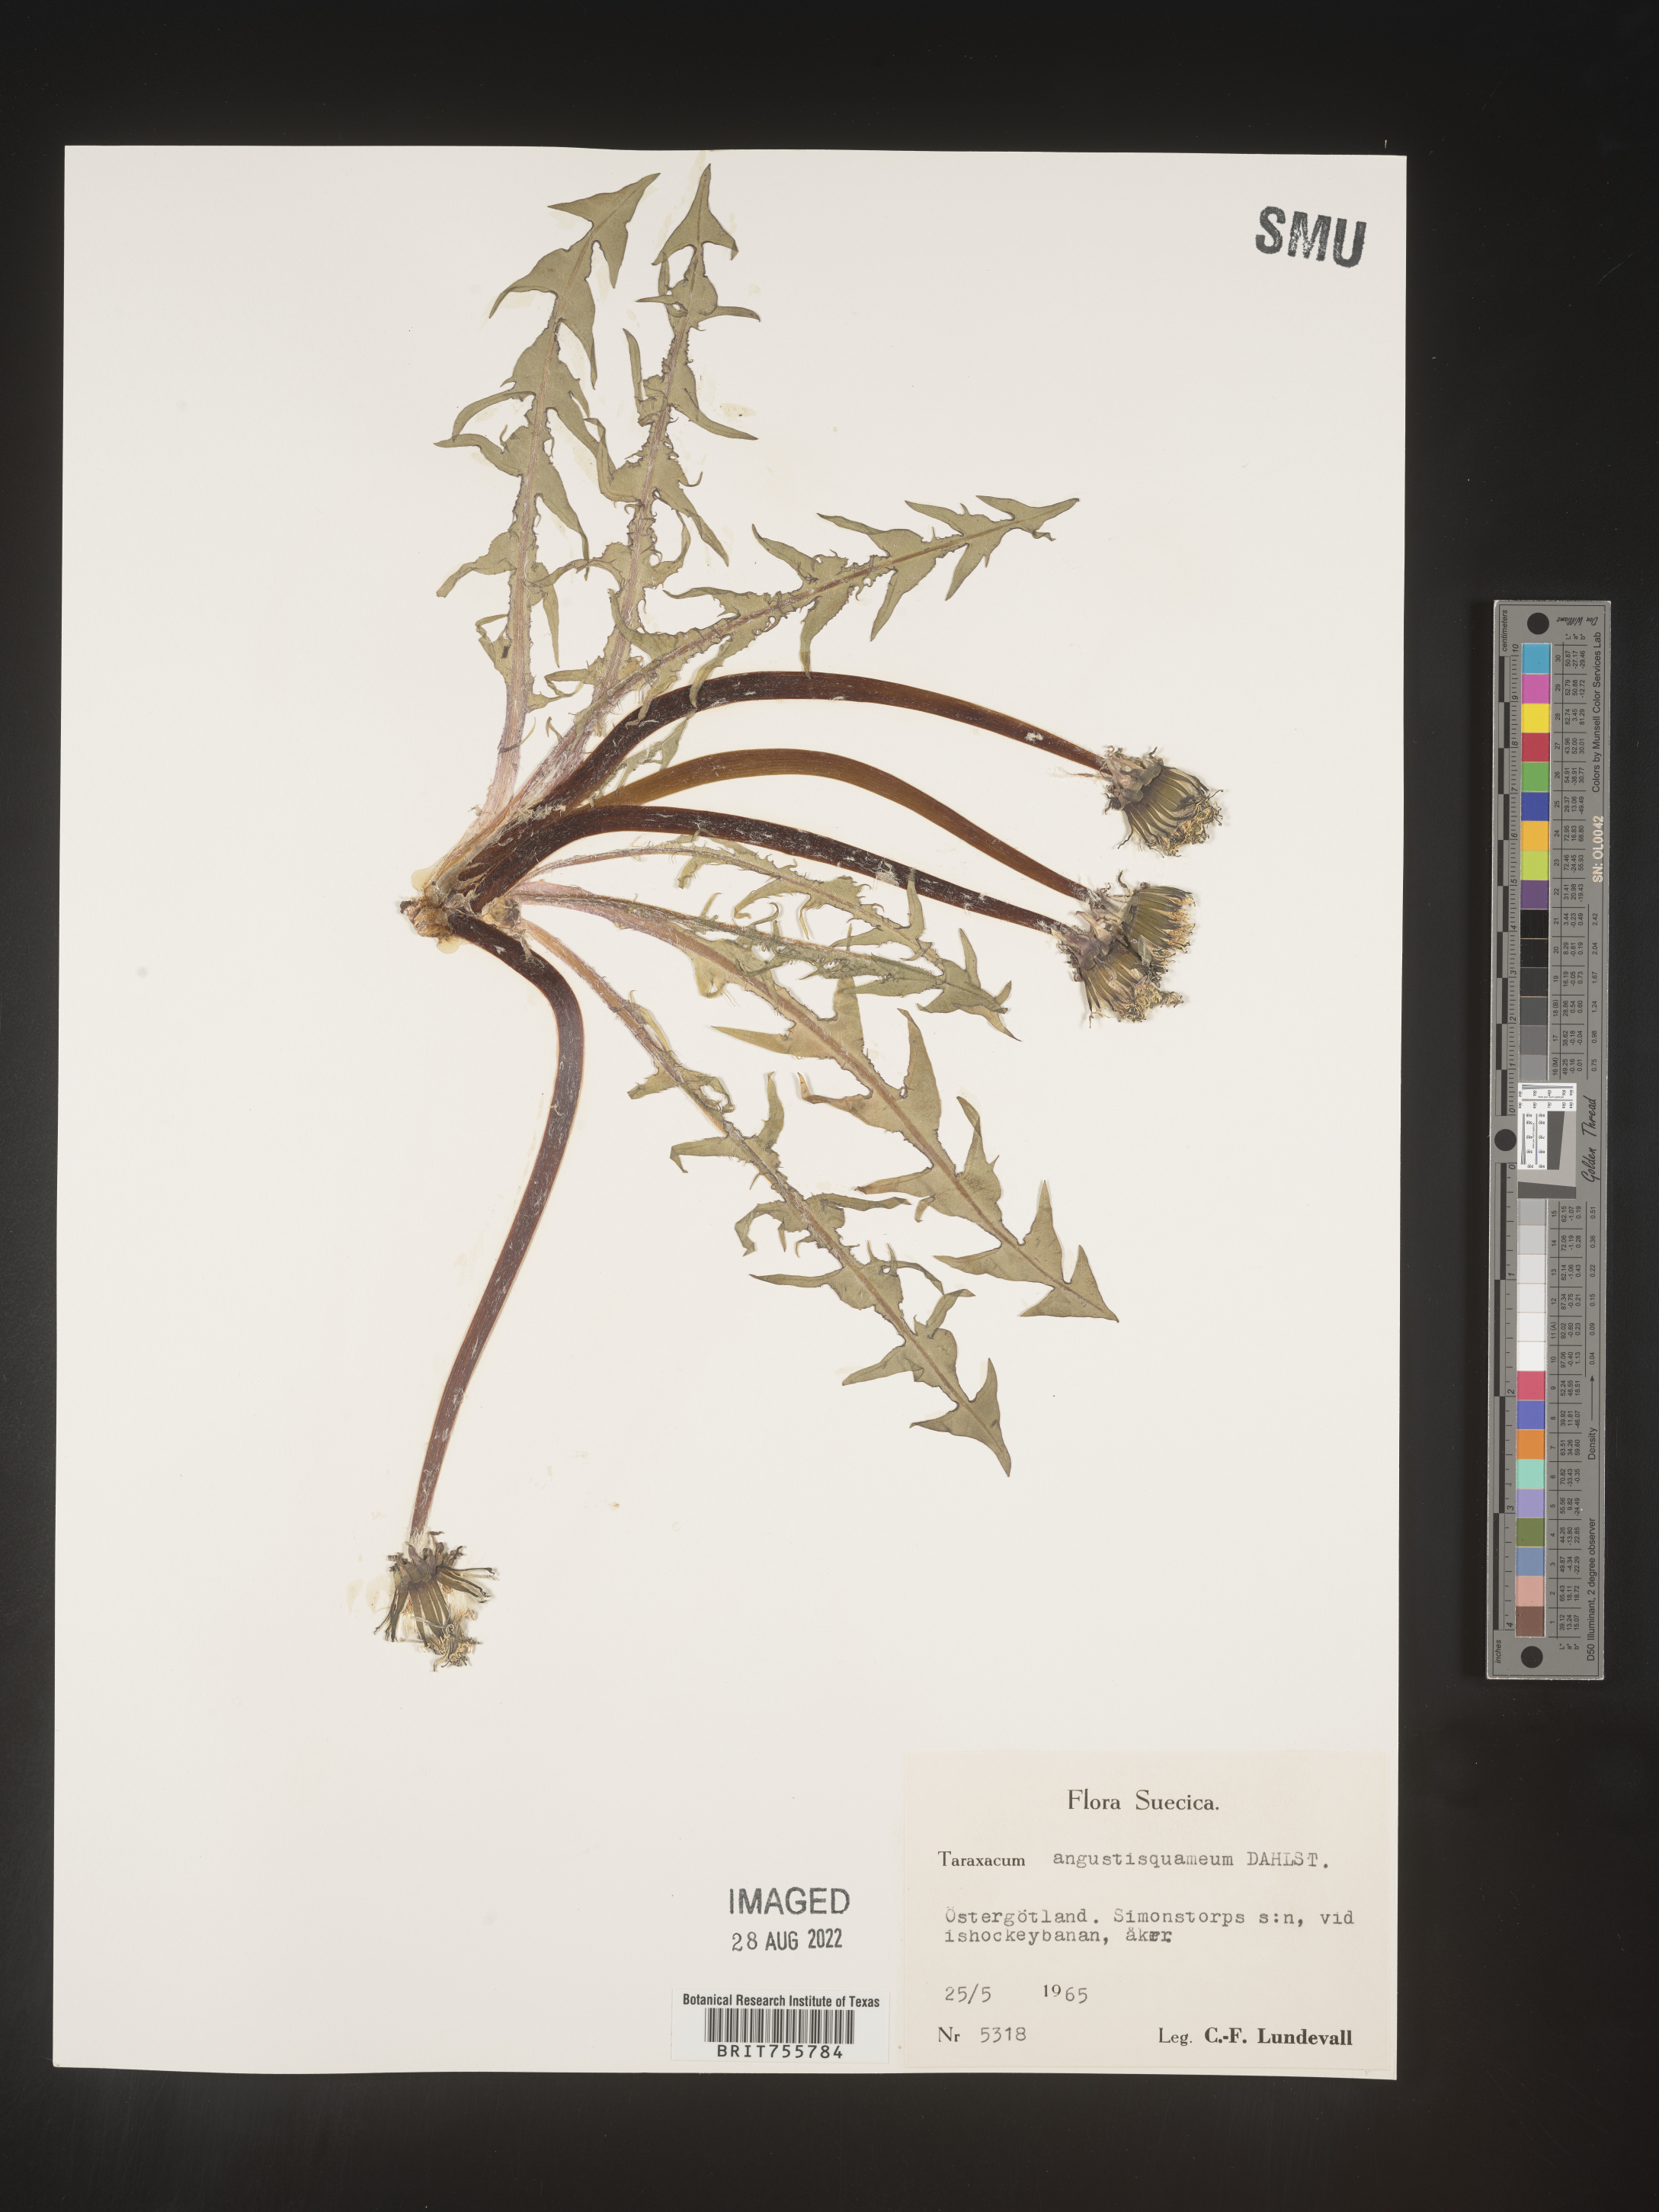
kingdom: Plantae
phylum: Tracheophyta
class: Magnoliopsida
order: Asterales
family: Asteraceae
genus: Taraxacum
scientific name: Taraxacum
